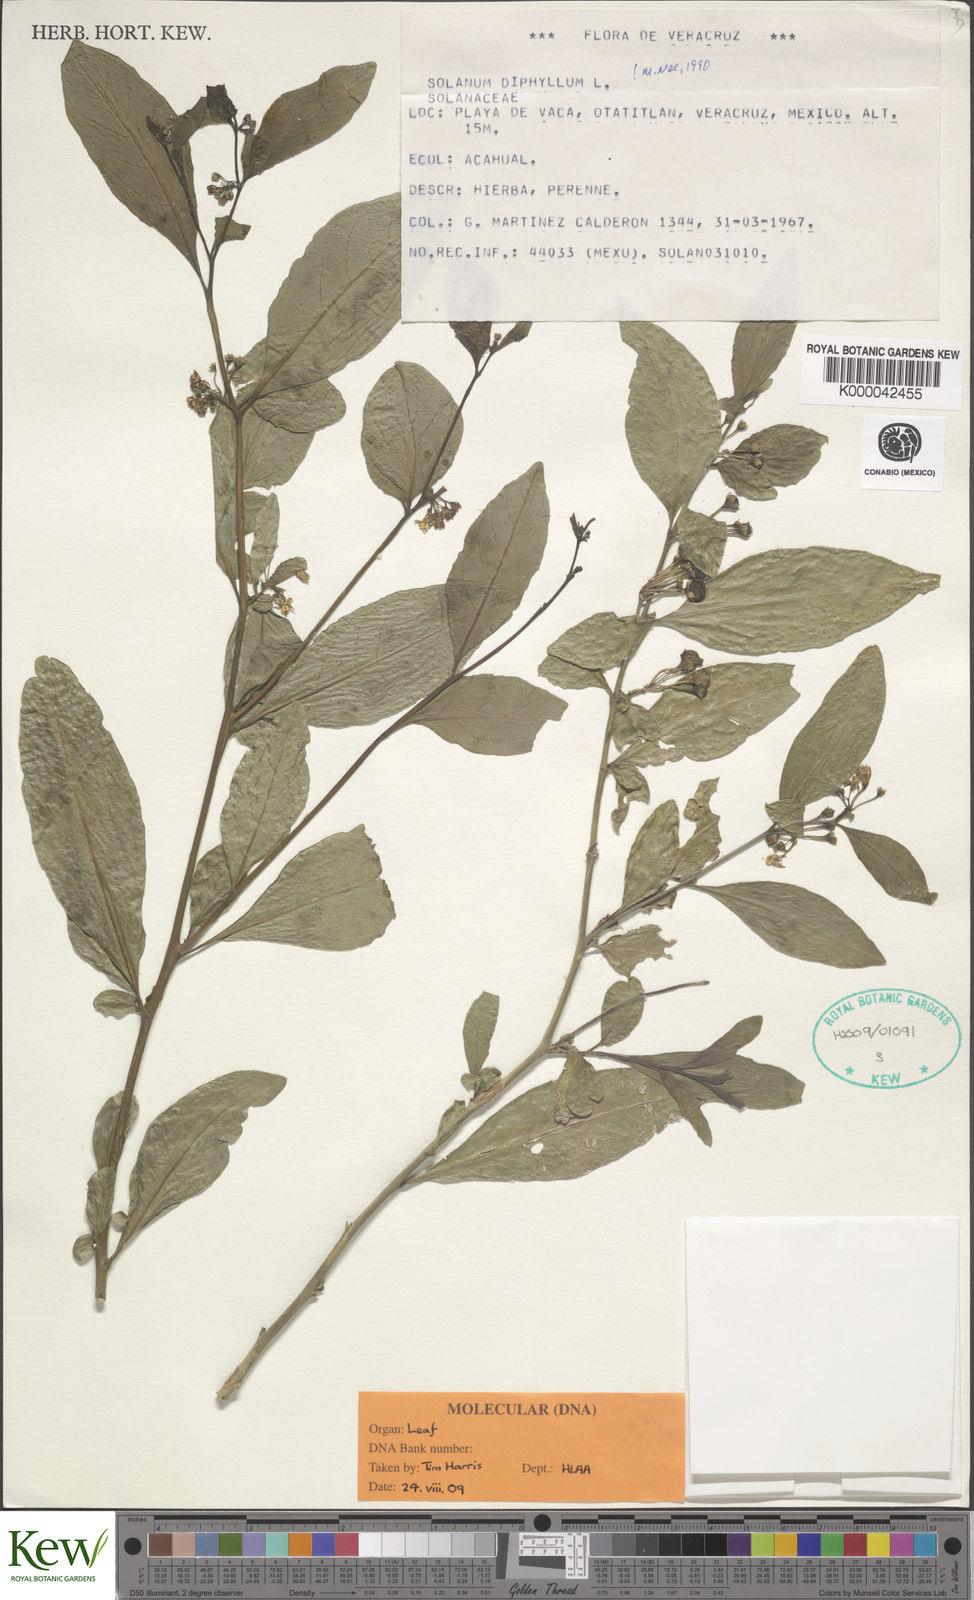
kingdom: Plantae
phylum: Tracheophyta
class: Magnoliopsida
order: Solanales
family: Solanaceae
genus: Solanum
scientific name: Solanum
